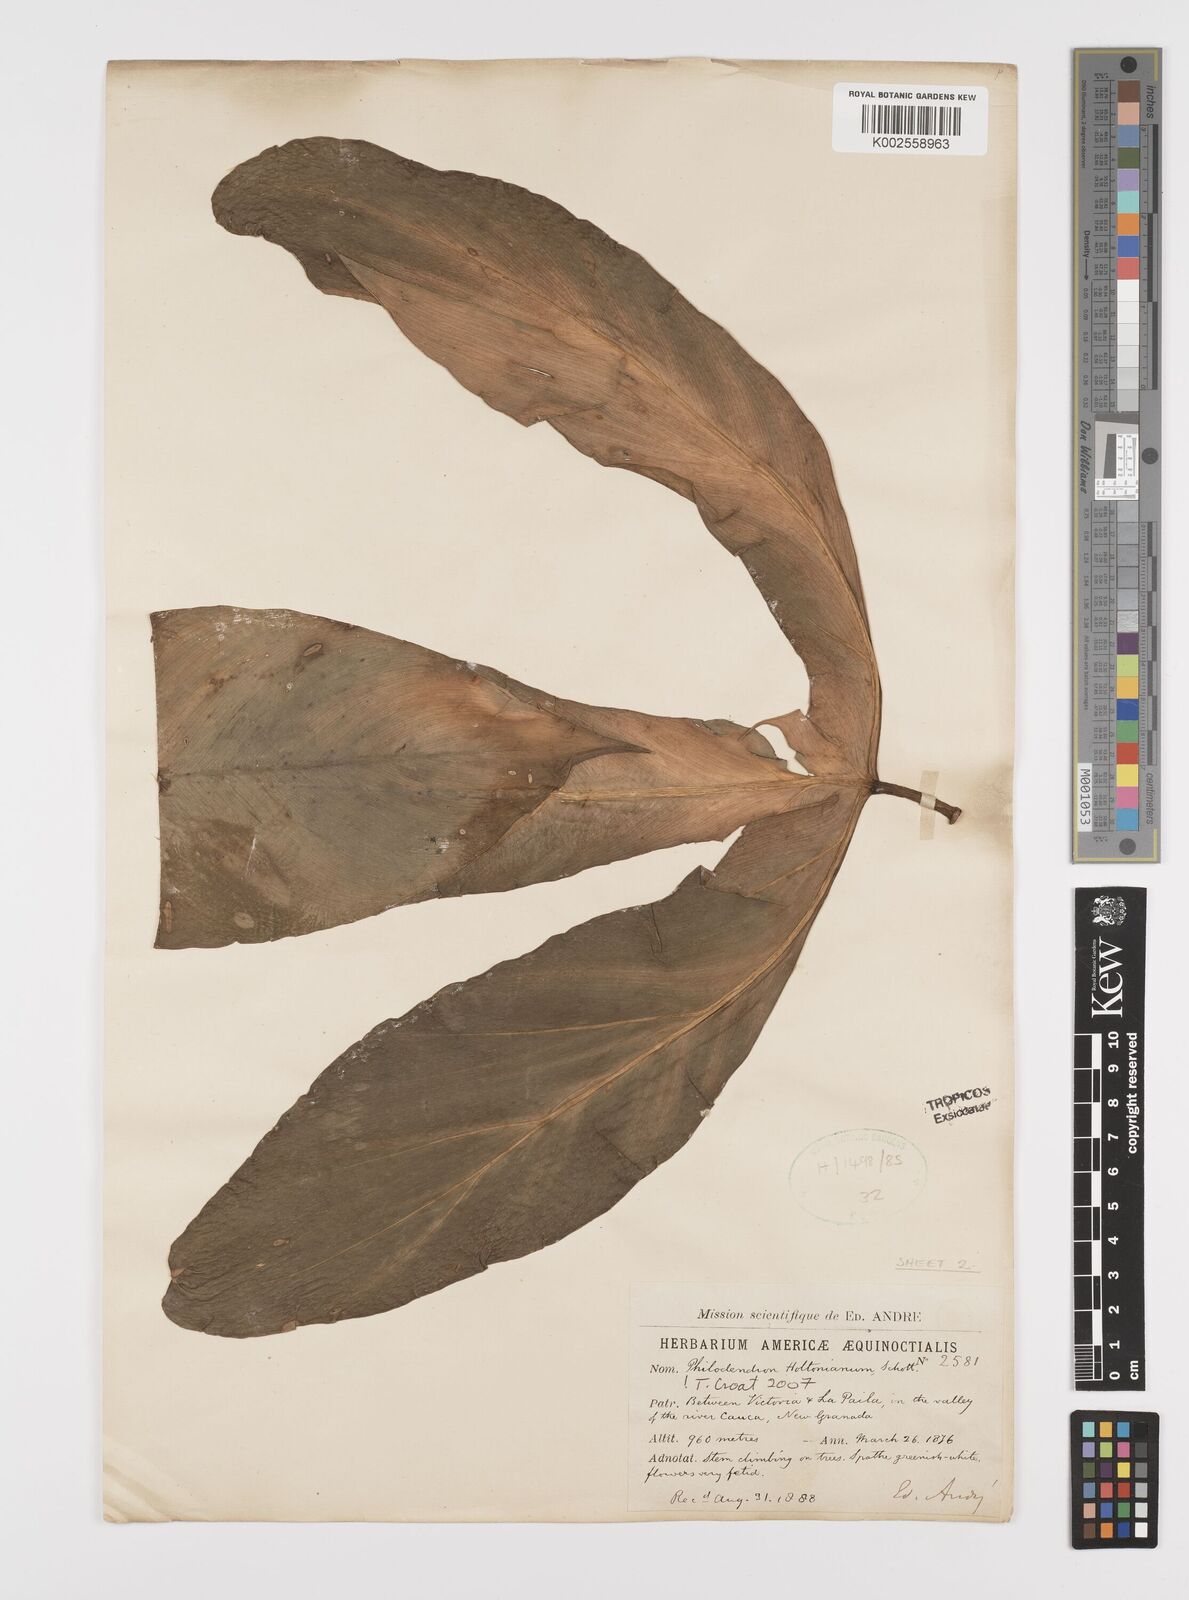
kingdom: Plantae
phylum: Tracheophyta
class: Liliopsida
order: Alismatales
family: Araceae
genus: Philodendron
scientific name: Philodendron tripartitum
